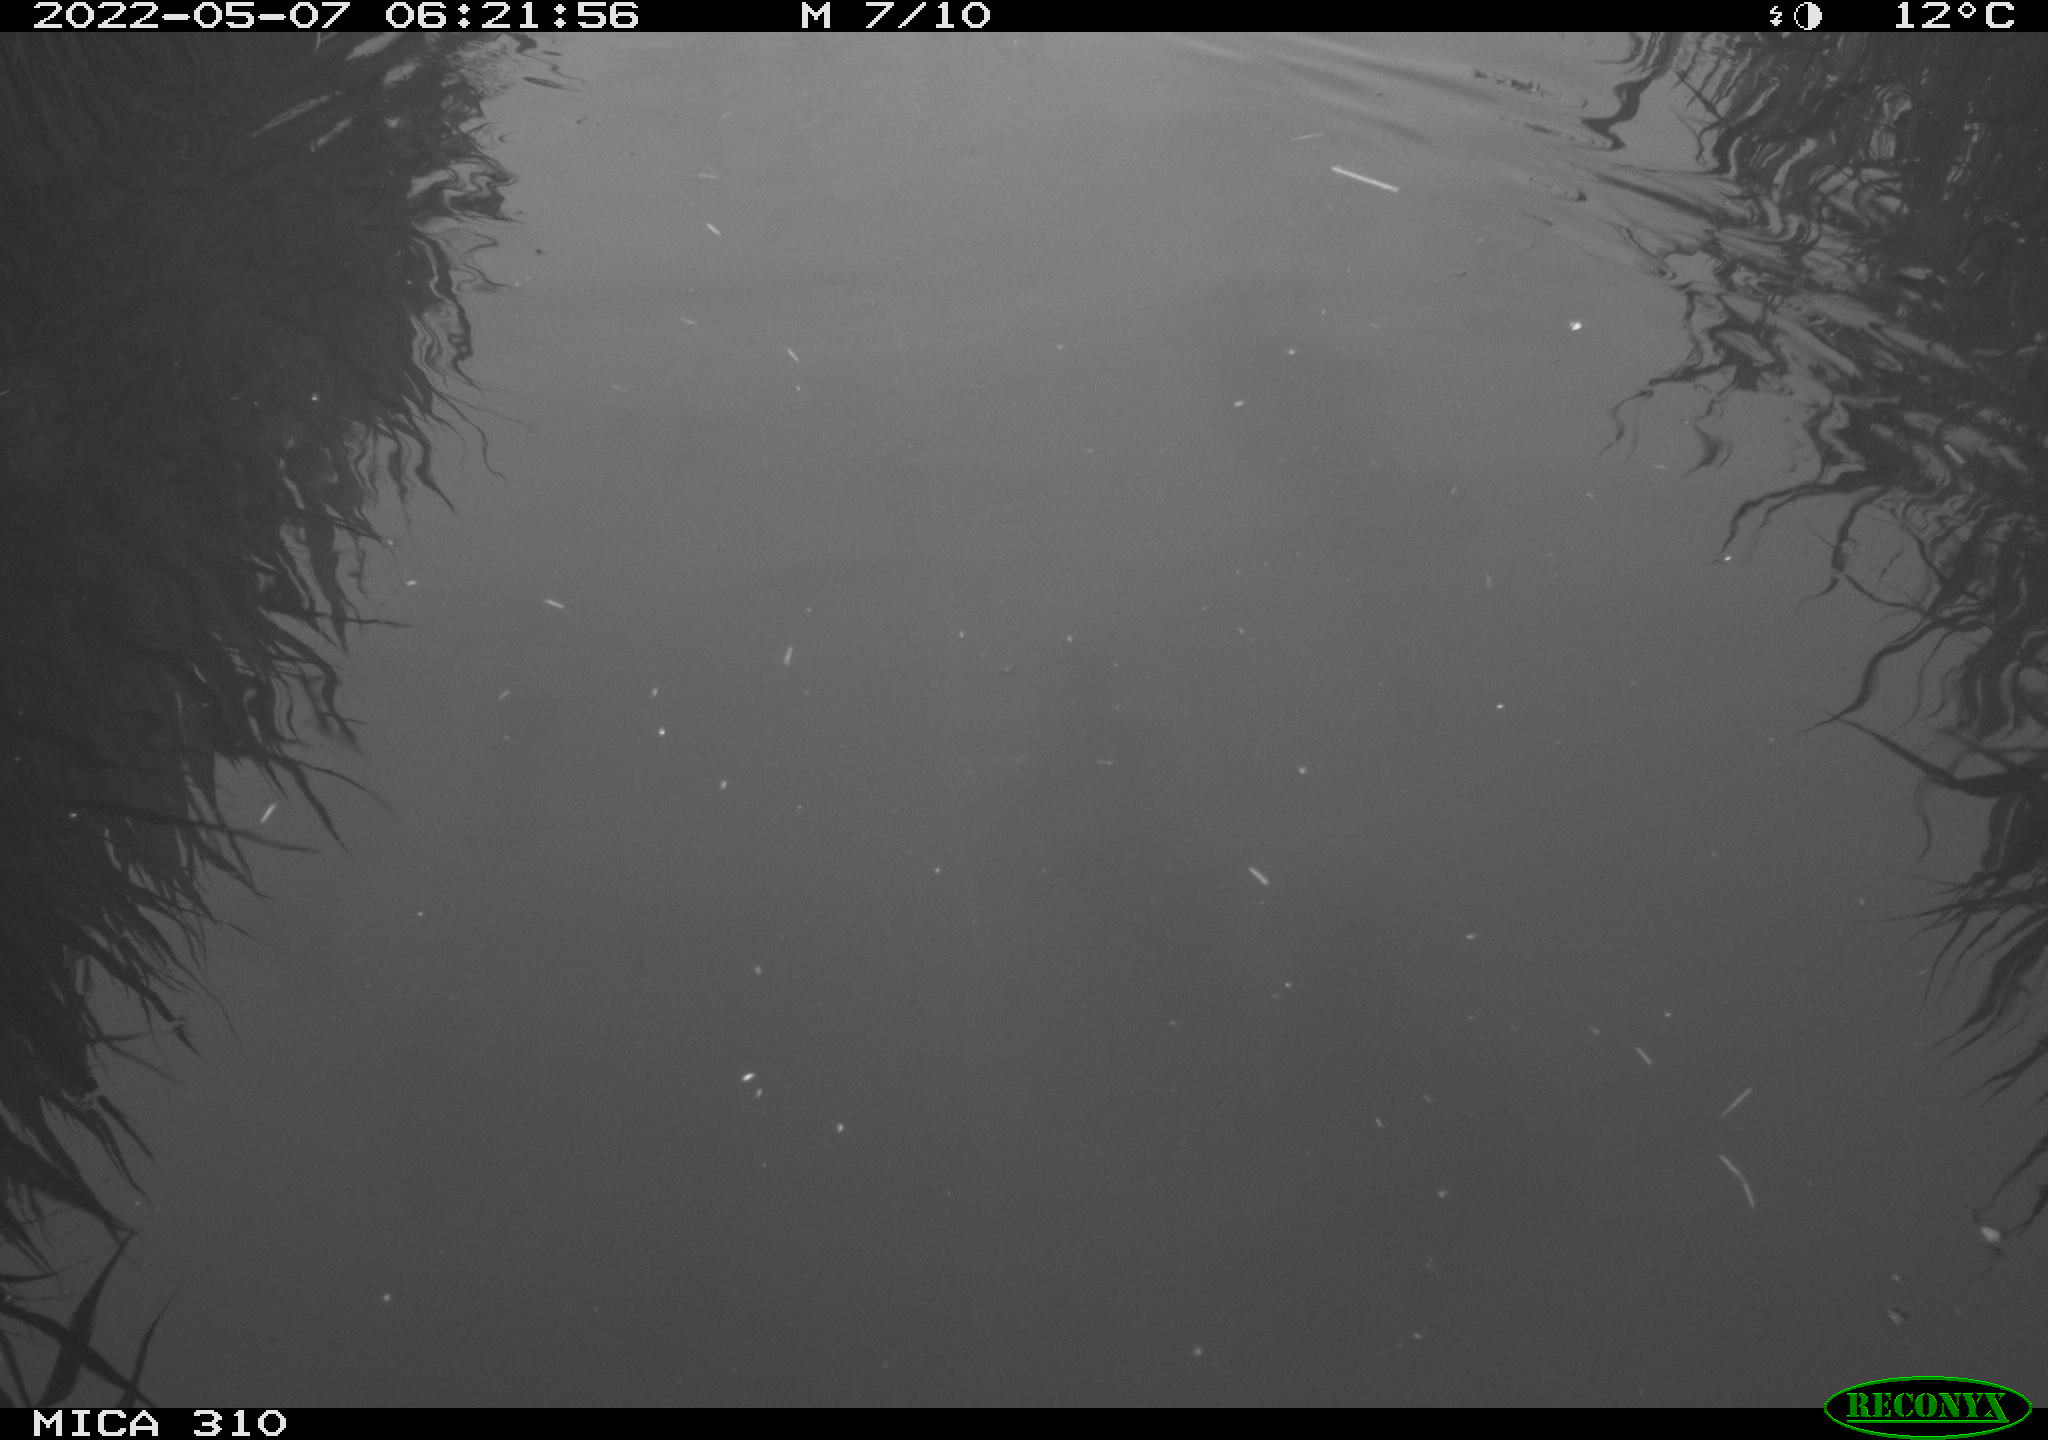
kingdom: Animalia
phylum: Chordata
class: Aves
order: Anseriformes
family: Anatidae
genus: Anas
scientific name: Anas platyrhynchos
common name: Mallard
